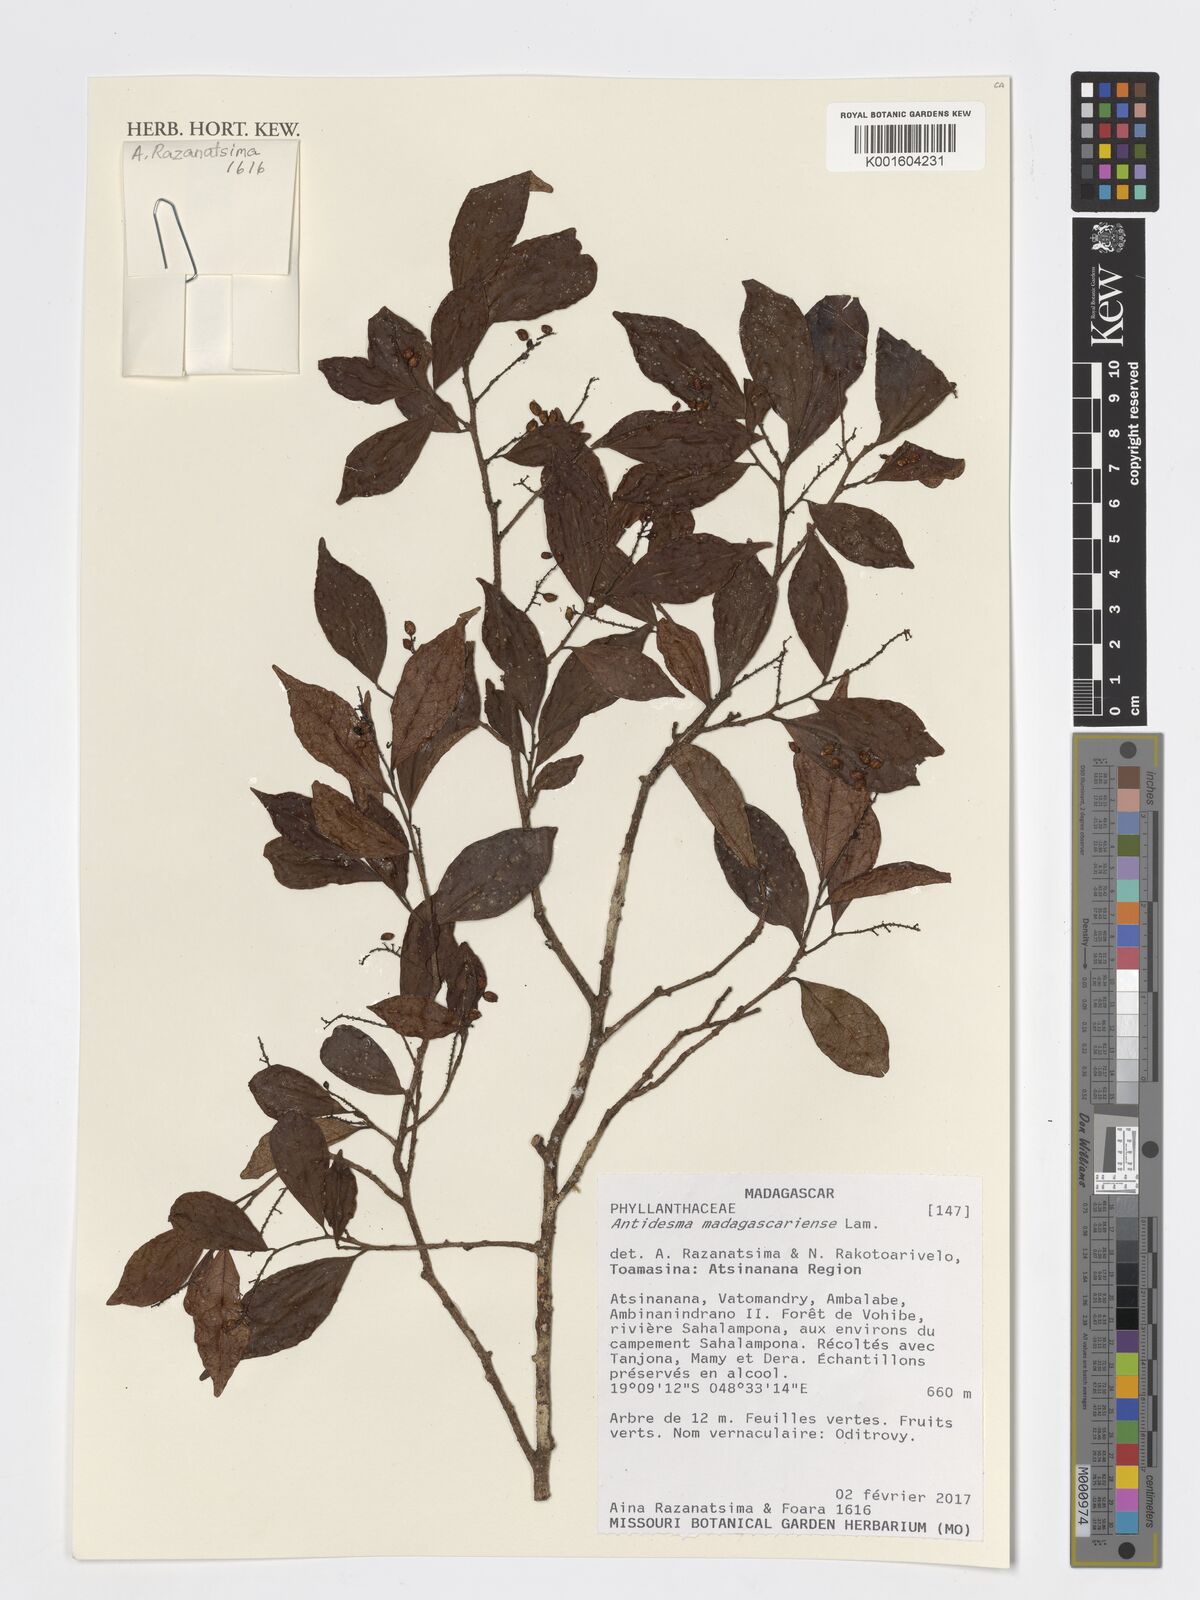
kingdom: Plantae
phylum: Tracheophyta
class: Magnoliopsida
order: Malpighiales
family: Phyllanthaceae
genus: Antidesma
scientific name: Antidesma madagascariense
